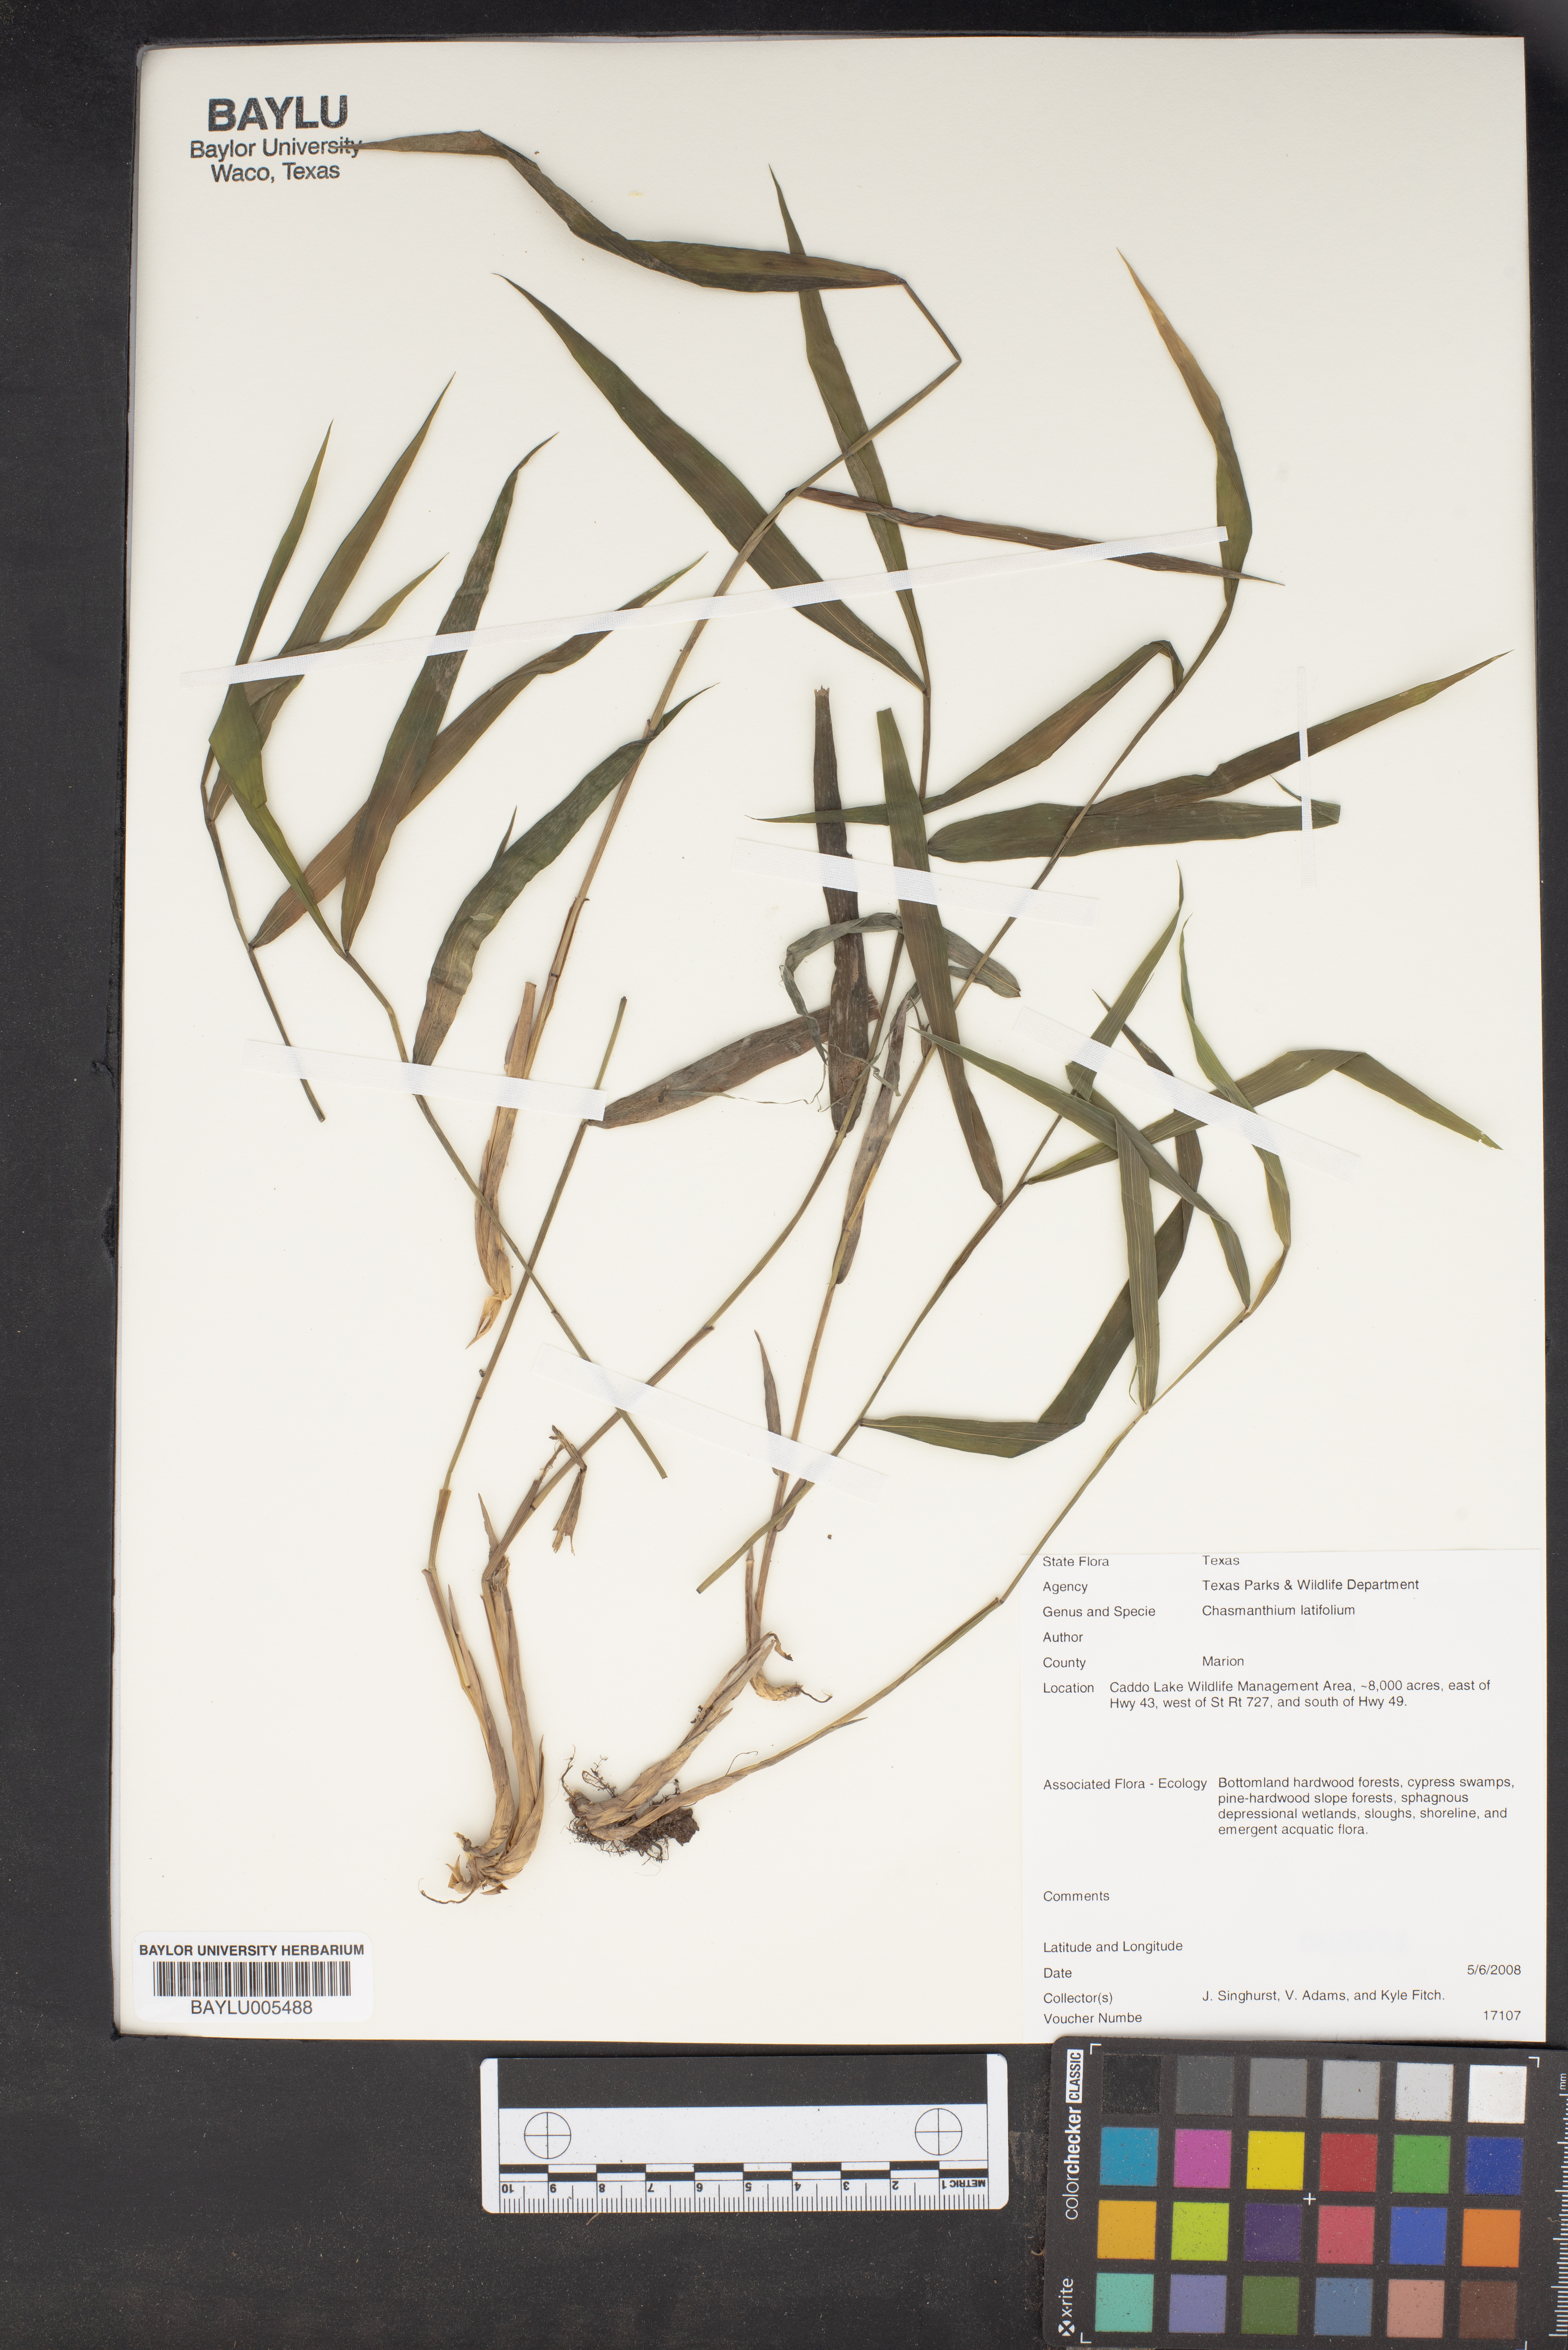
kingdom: Plantae
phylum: Tracheophyta
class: Liliopsida
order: Poales
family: Poaceae
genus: Chasmanthium
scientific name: Chasmanthium latifolium
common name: Broad-leaved chasmanthium
